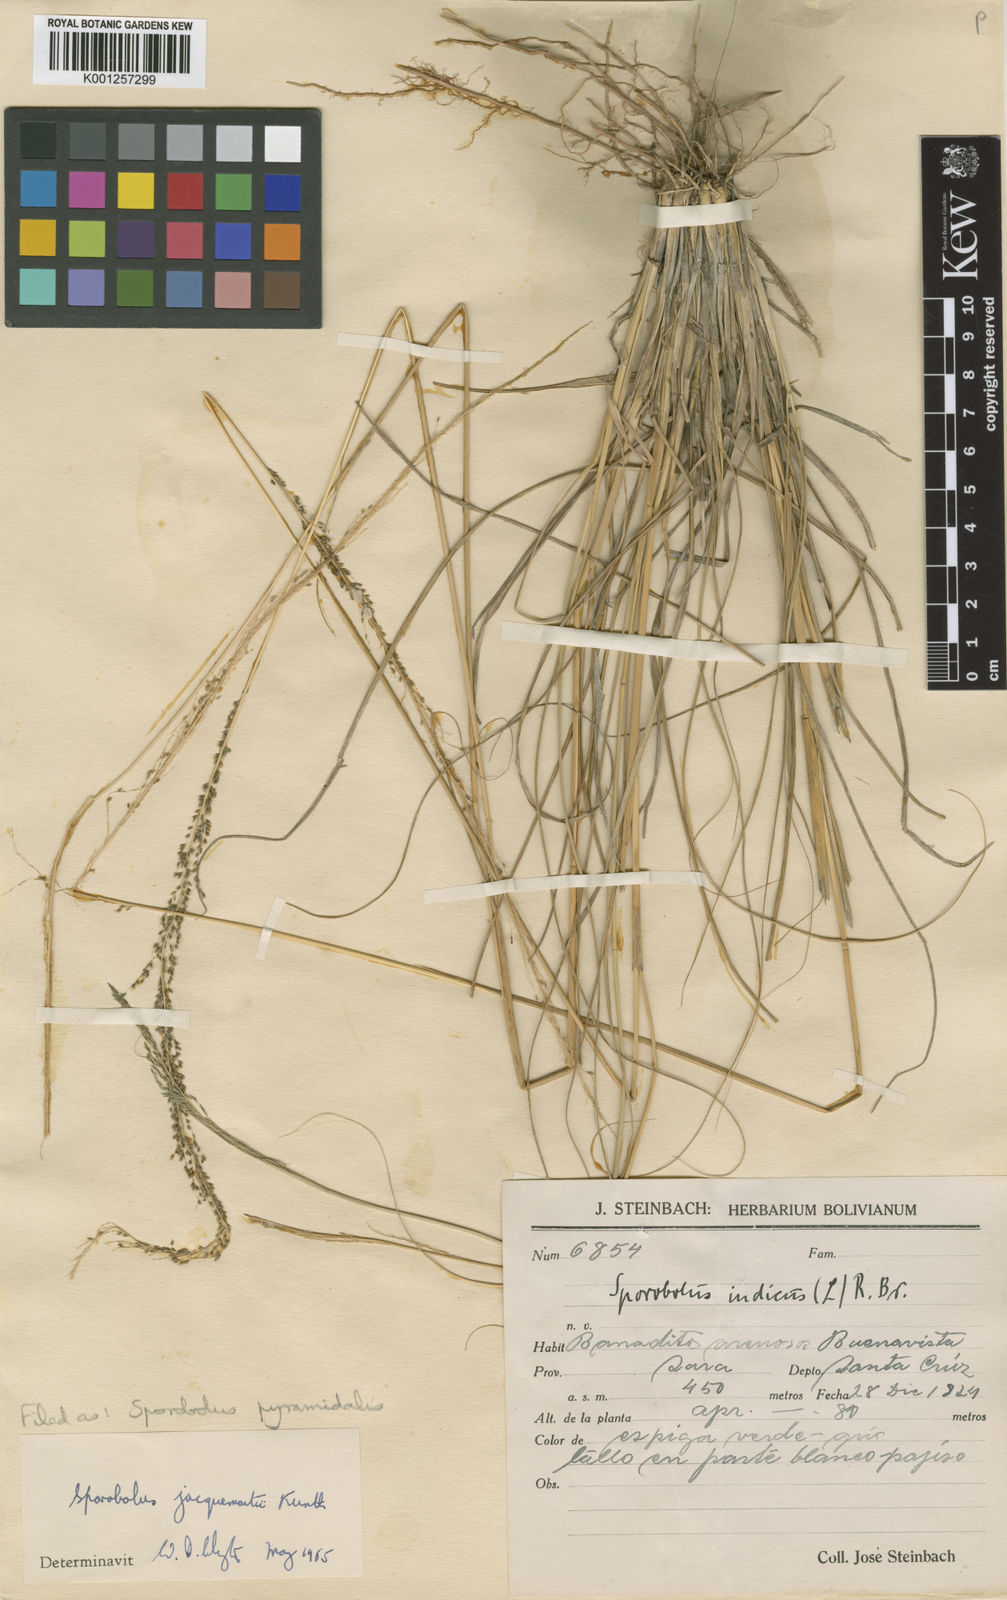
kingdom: Plantae
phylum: Tracheophyta
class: Liliopsida
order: Poales
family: Poaceae
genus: Sporobolus
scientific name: Sporobolus pyramidalis
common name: West indian dropseed
